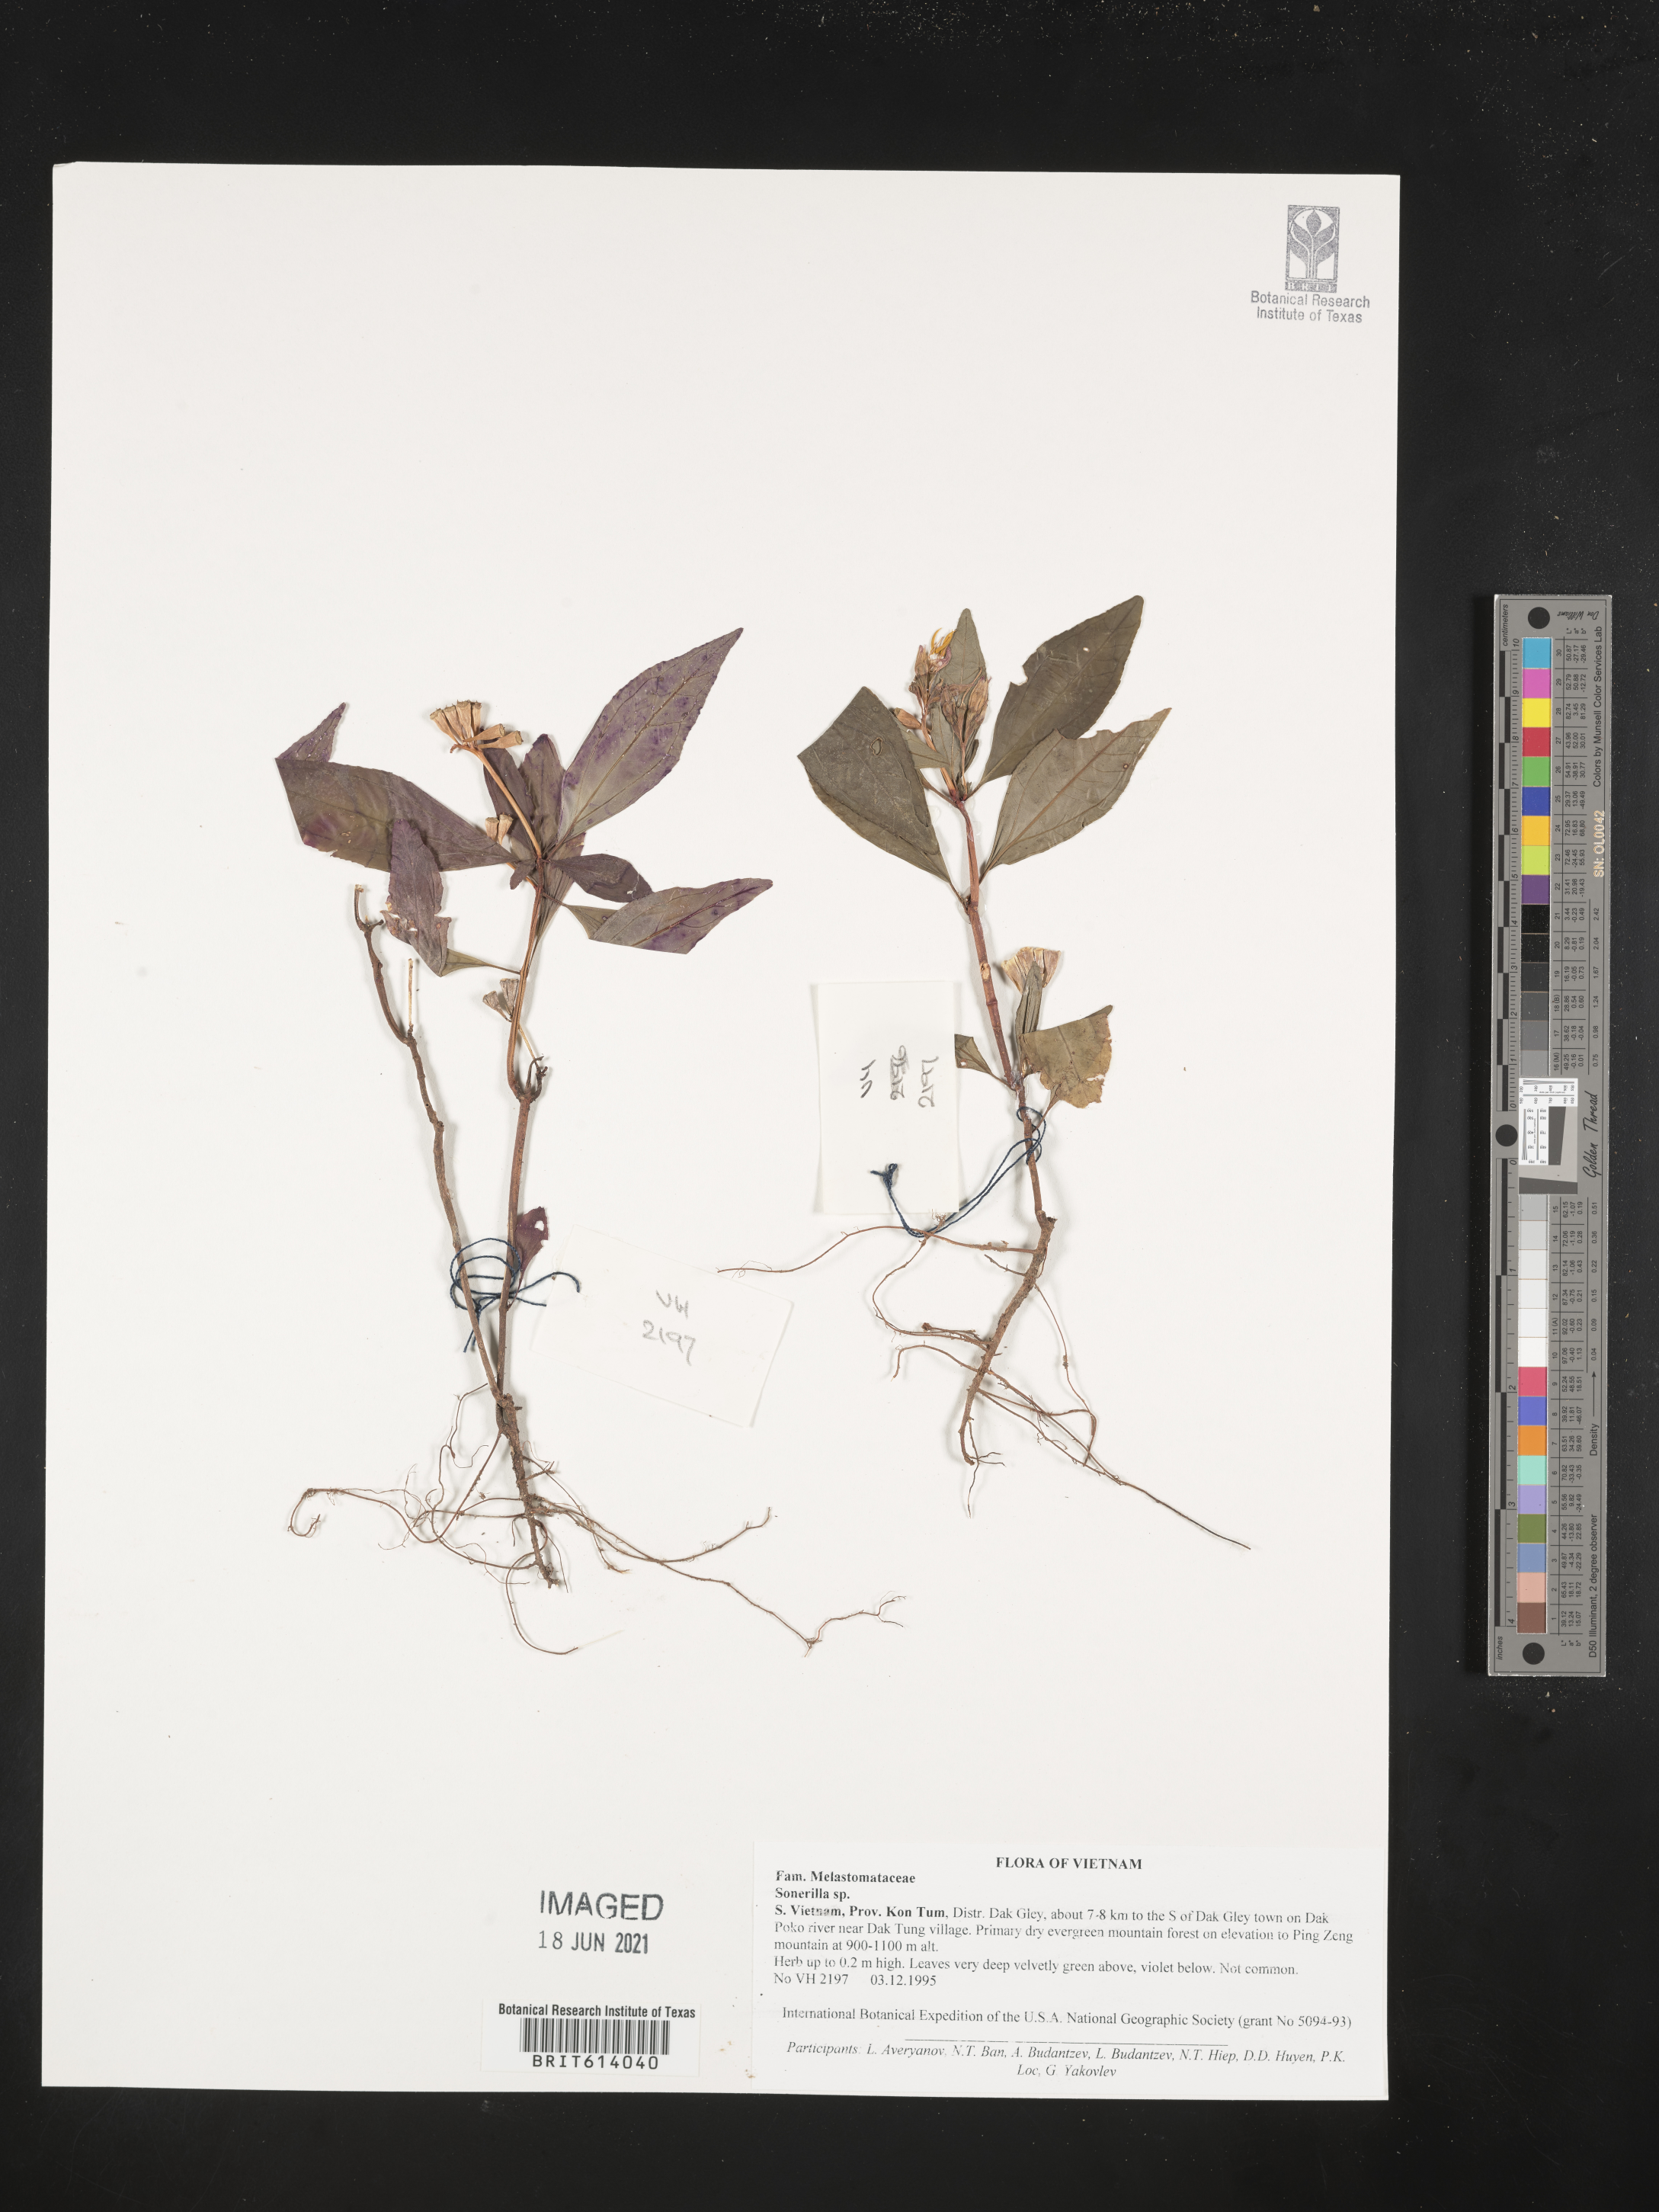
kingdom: Plantae
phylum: Tracheophyta
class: Magnoliopsida
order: Myrtales
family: Melastomataceae
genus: Sonerila
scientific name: Sonerila
